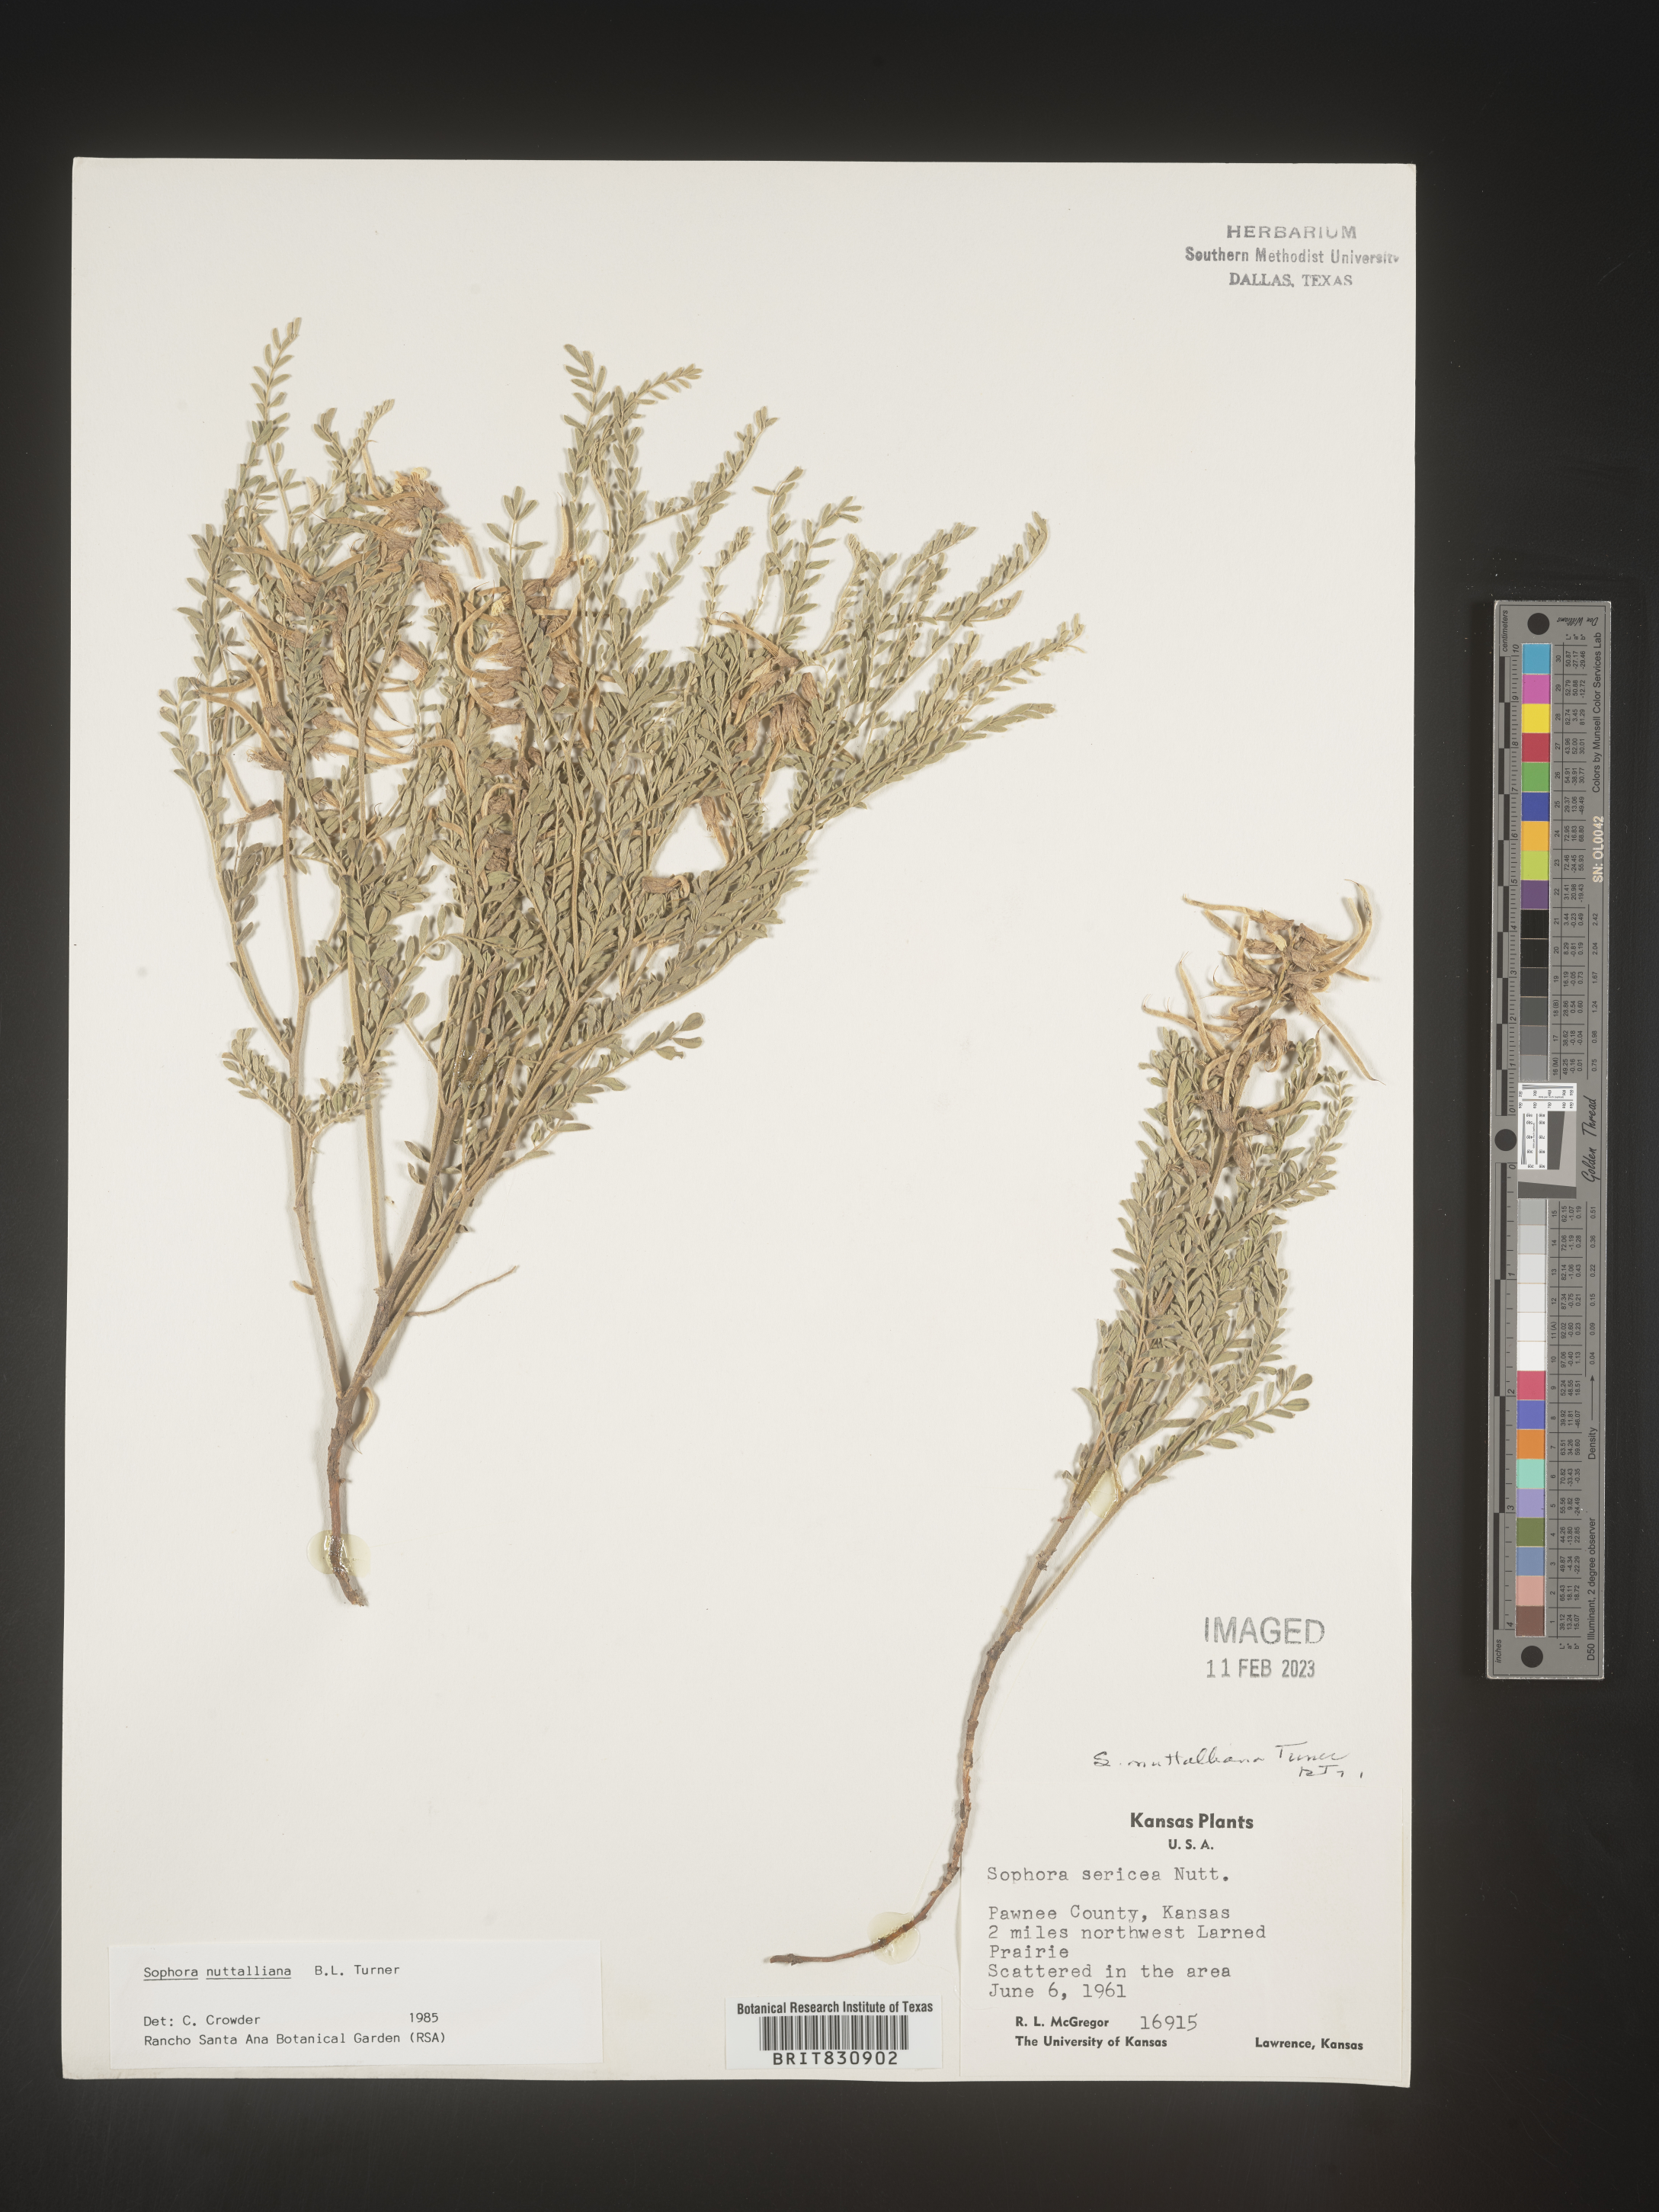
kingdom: Plantae
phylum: Tracheophyta
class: Magnoliopsida
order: Fabales
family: Fabaceae
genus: Sophora
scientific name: Sophora nuttalliana
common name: Silky sophora
